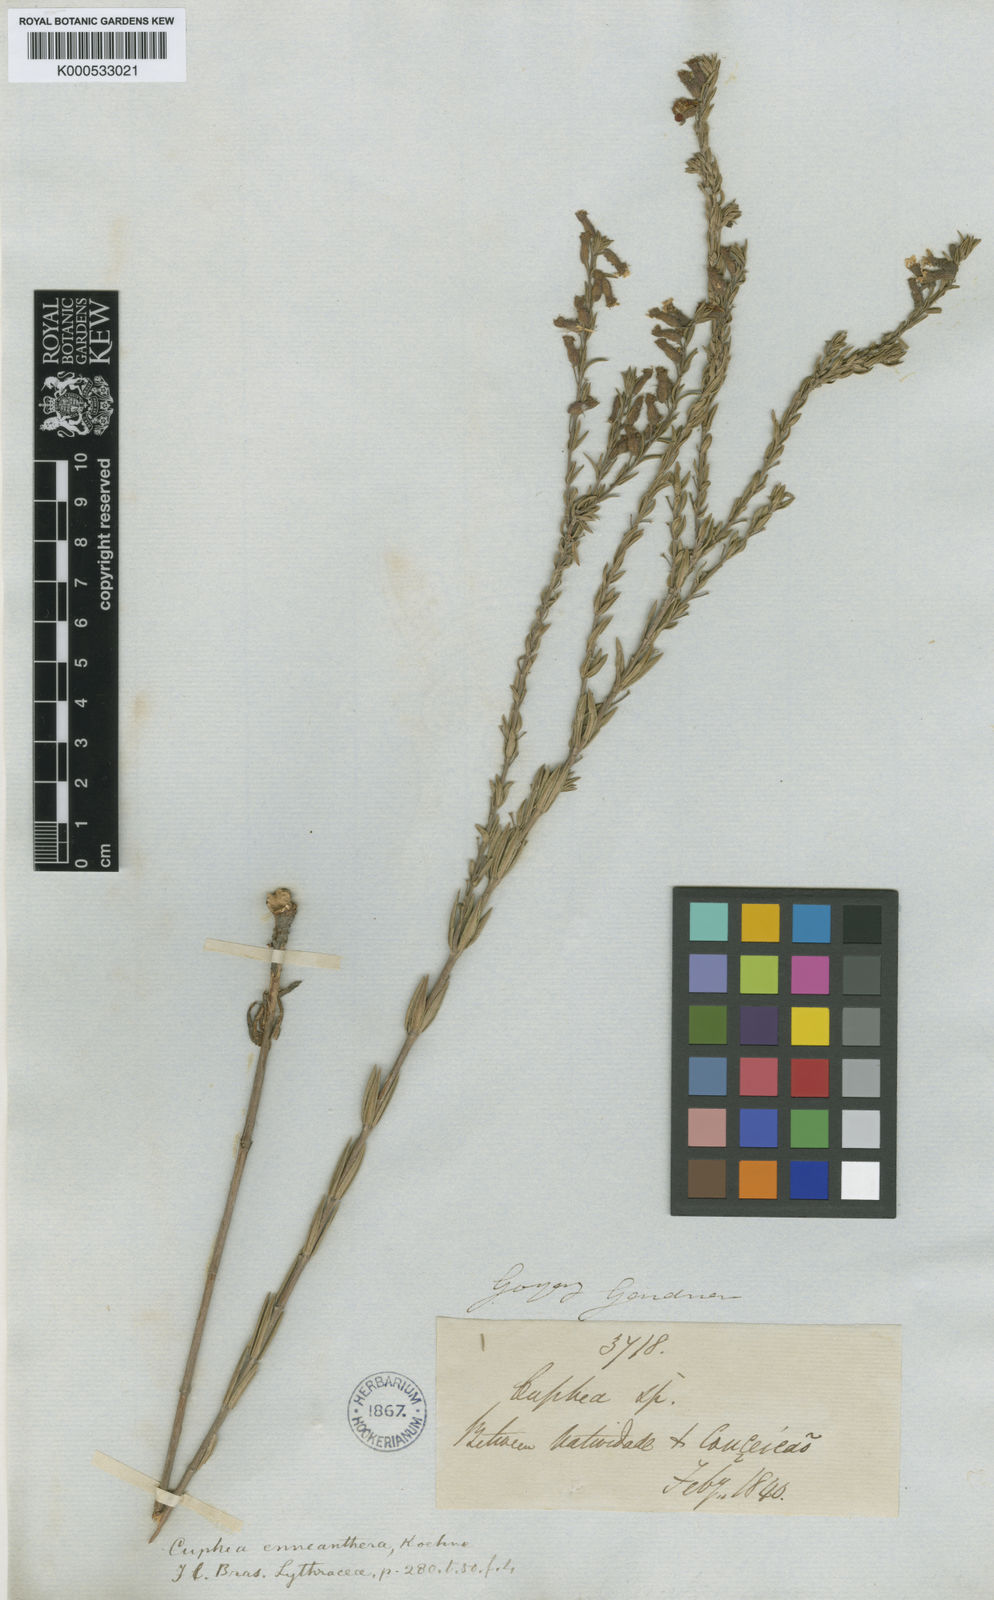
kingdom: Plantae
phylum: Tracheophyta
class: Magnoliopsida
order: Myrtales
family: Lythraceae
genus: Cuphea
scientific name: Cuphea
